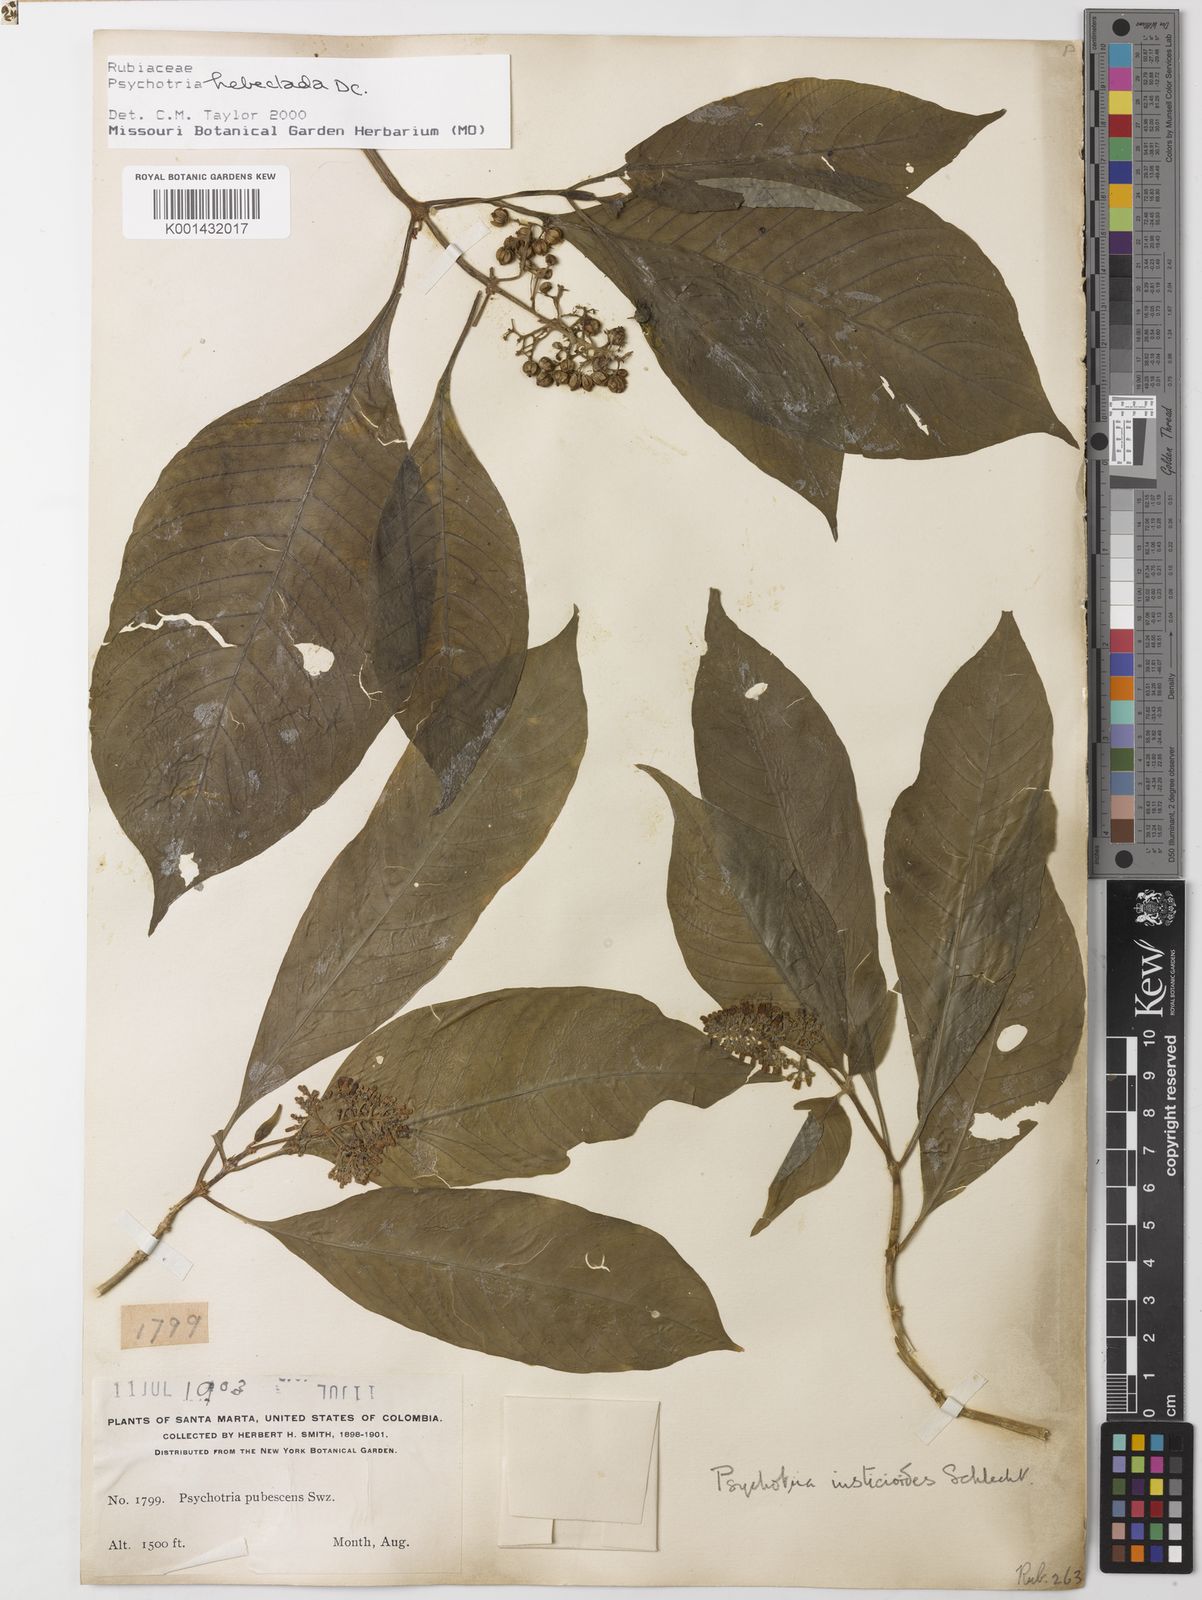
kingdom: Plantae
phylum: Tracheophyta
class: Magnoliopsida
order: Gentianales
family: Rubiaceae
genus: Palicourea
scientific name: Palicourea hebeclada
